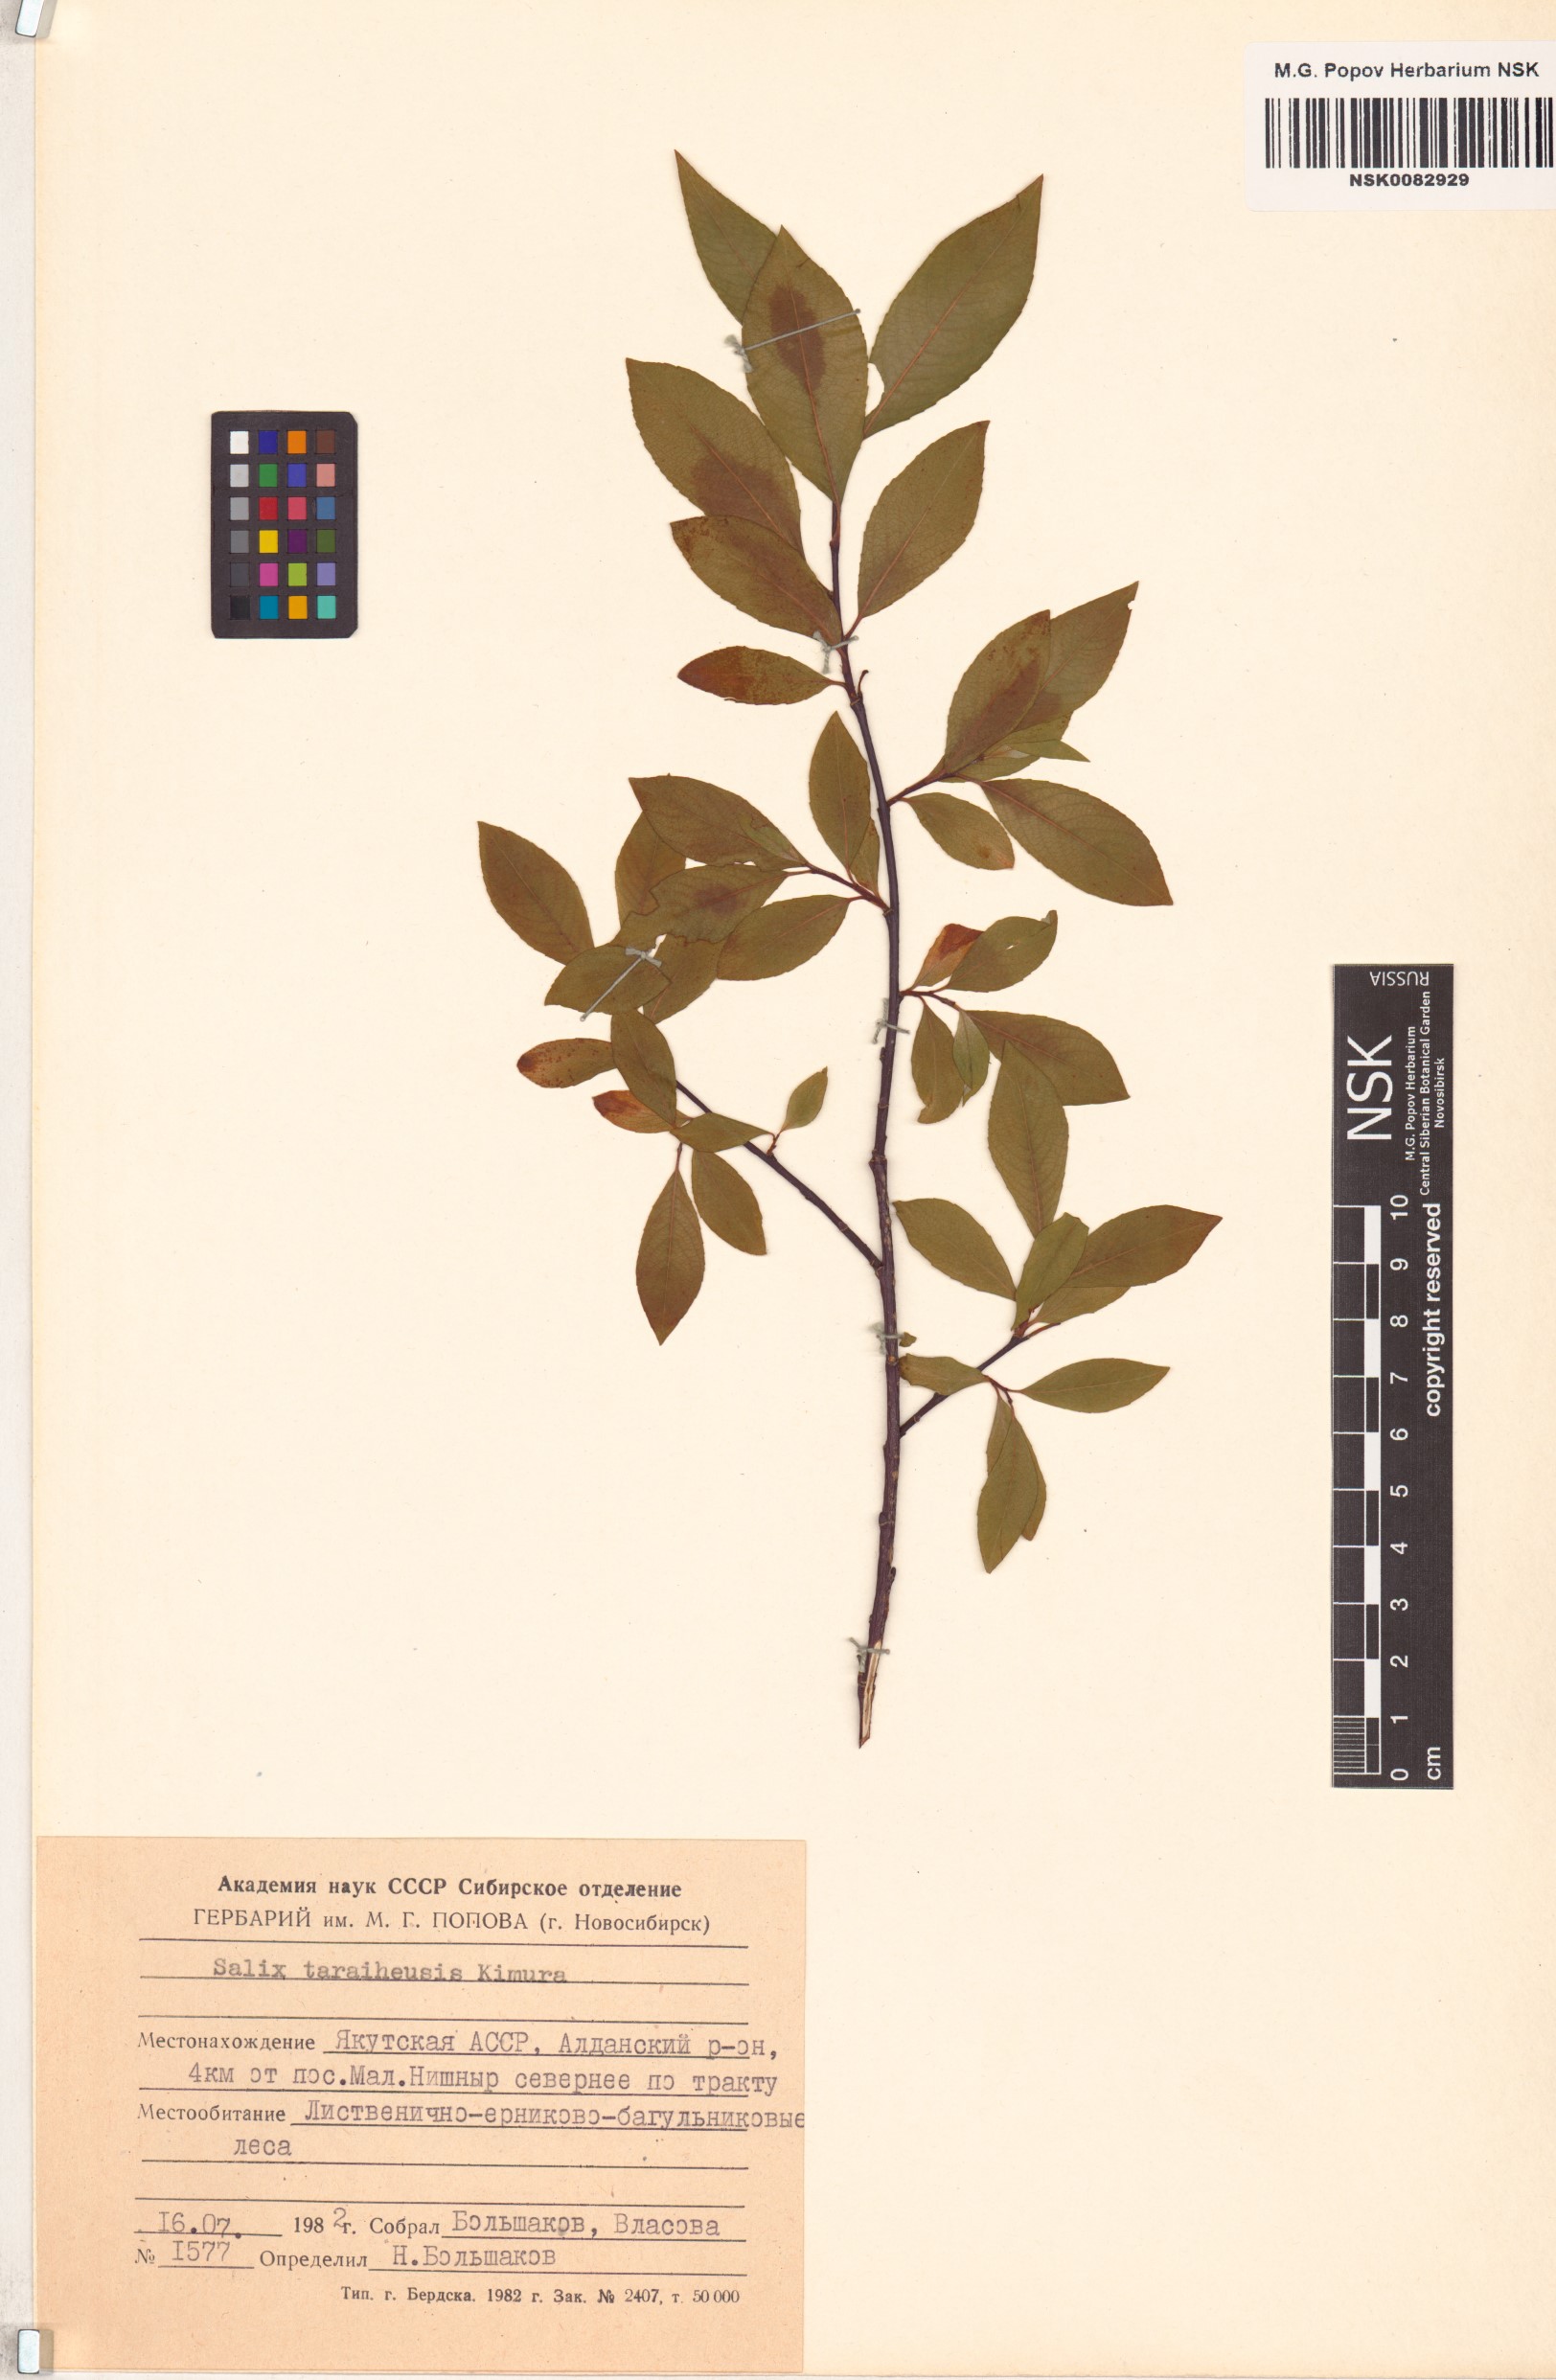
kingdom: Plantae
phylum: Tracheophyta
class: Magnoliopsida
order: Malpighiales
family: Salicaceae
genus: Salix
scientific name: Salix taraikensis
